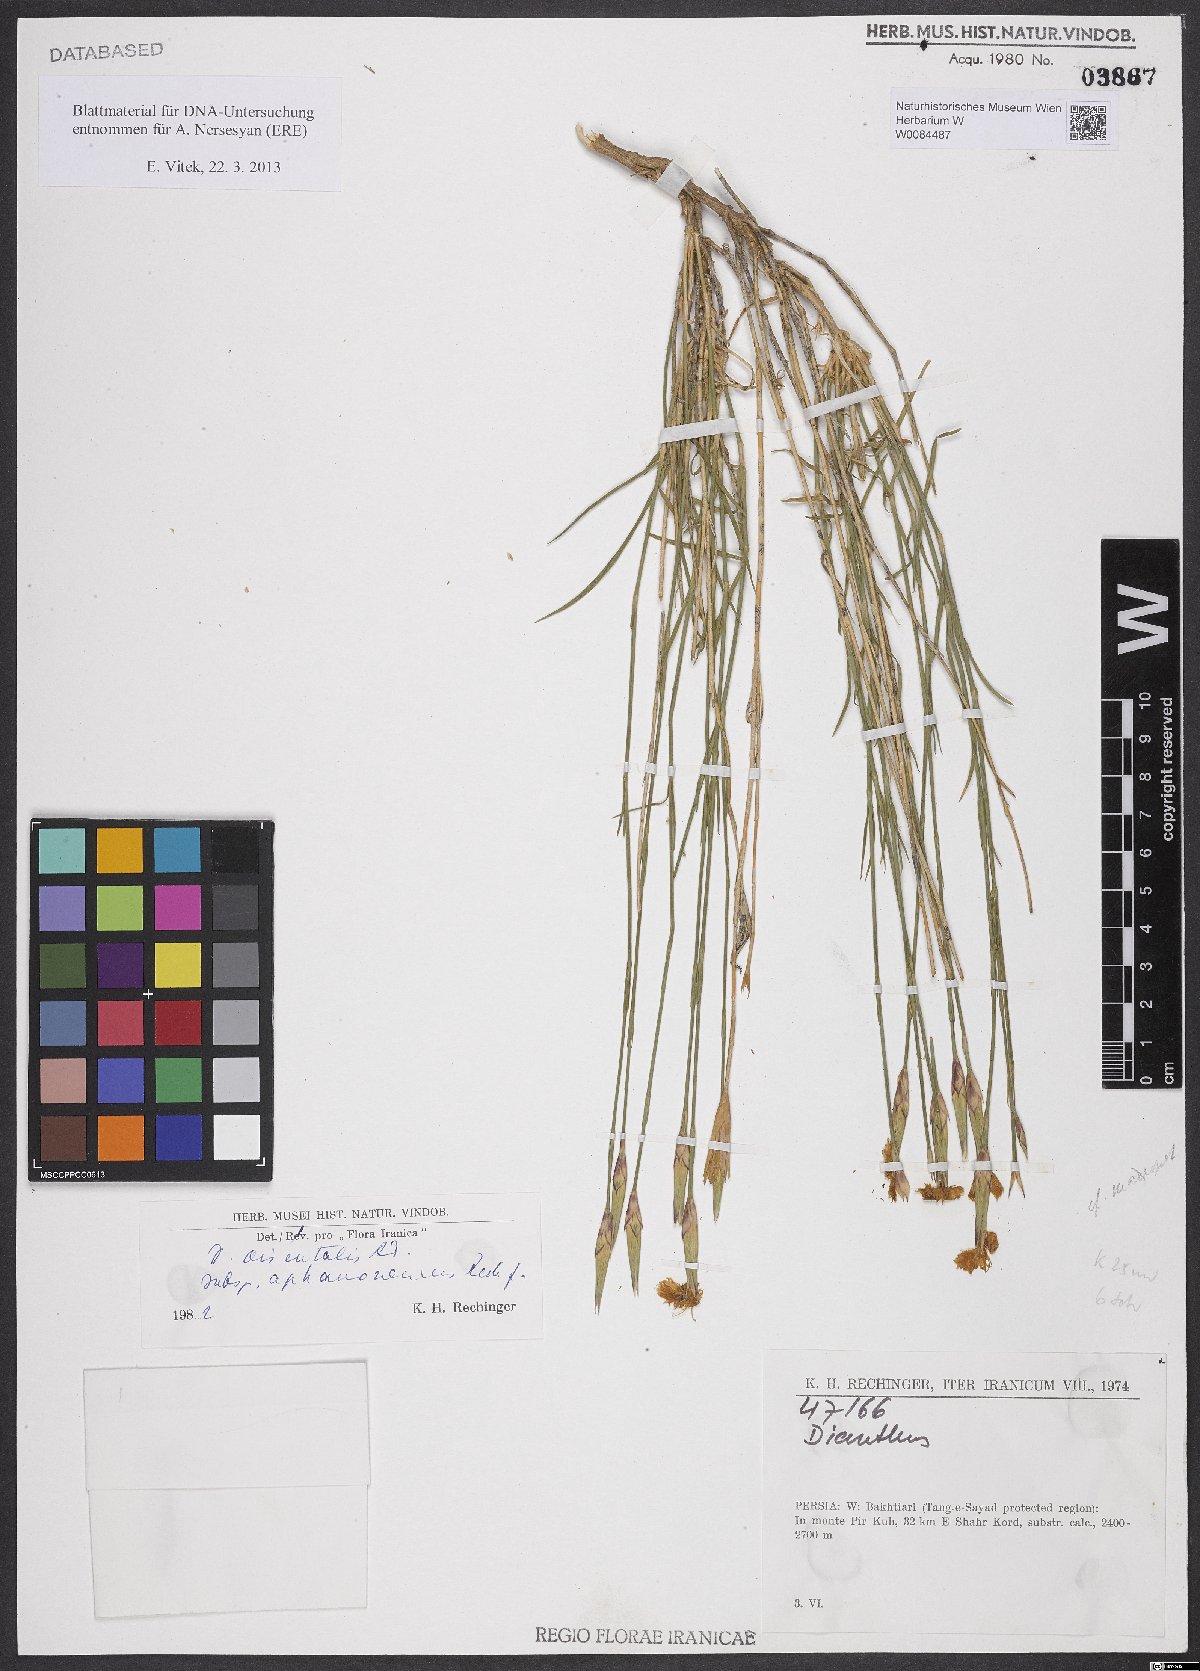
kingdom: Plantae
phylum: Tracheophyta
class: Magnoliopsida
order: Caryophyllales
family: Caryophyllaceae
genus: Dianthus
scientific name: Dianthus orientalis
